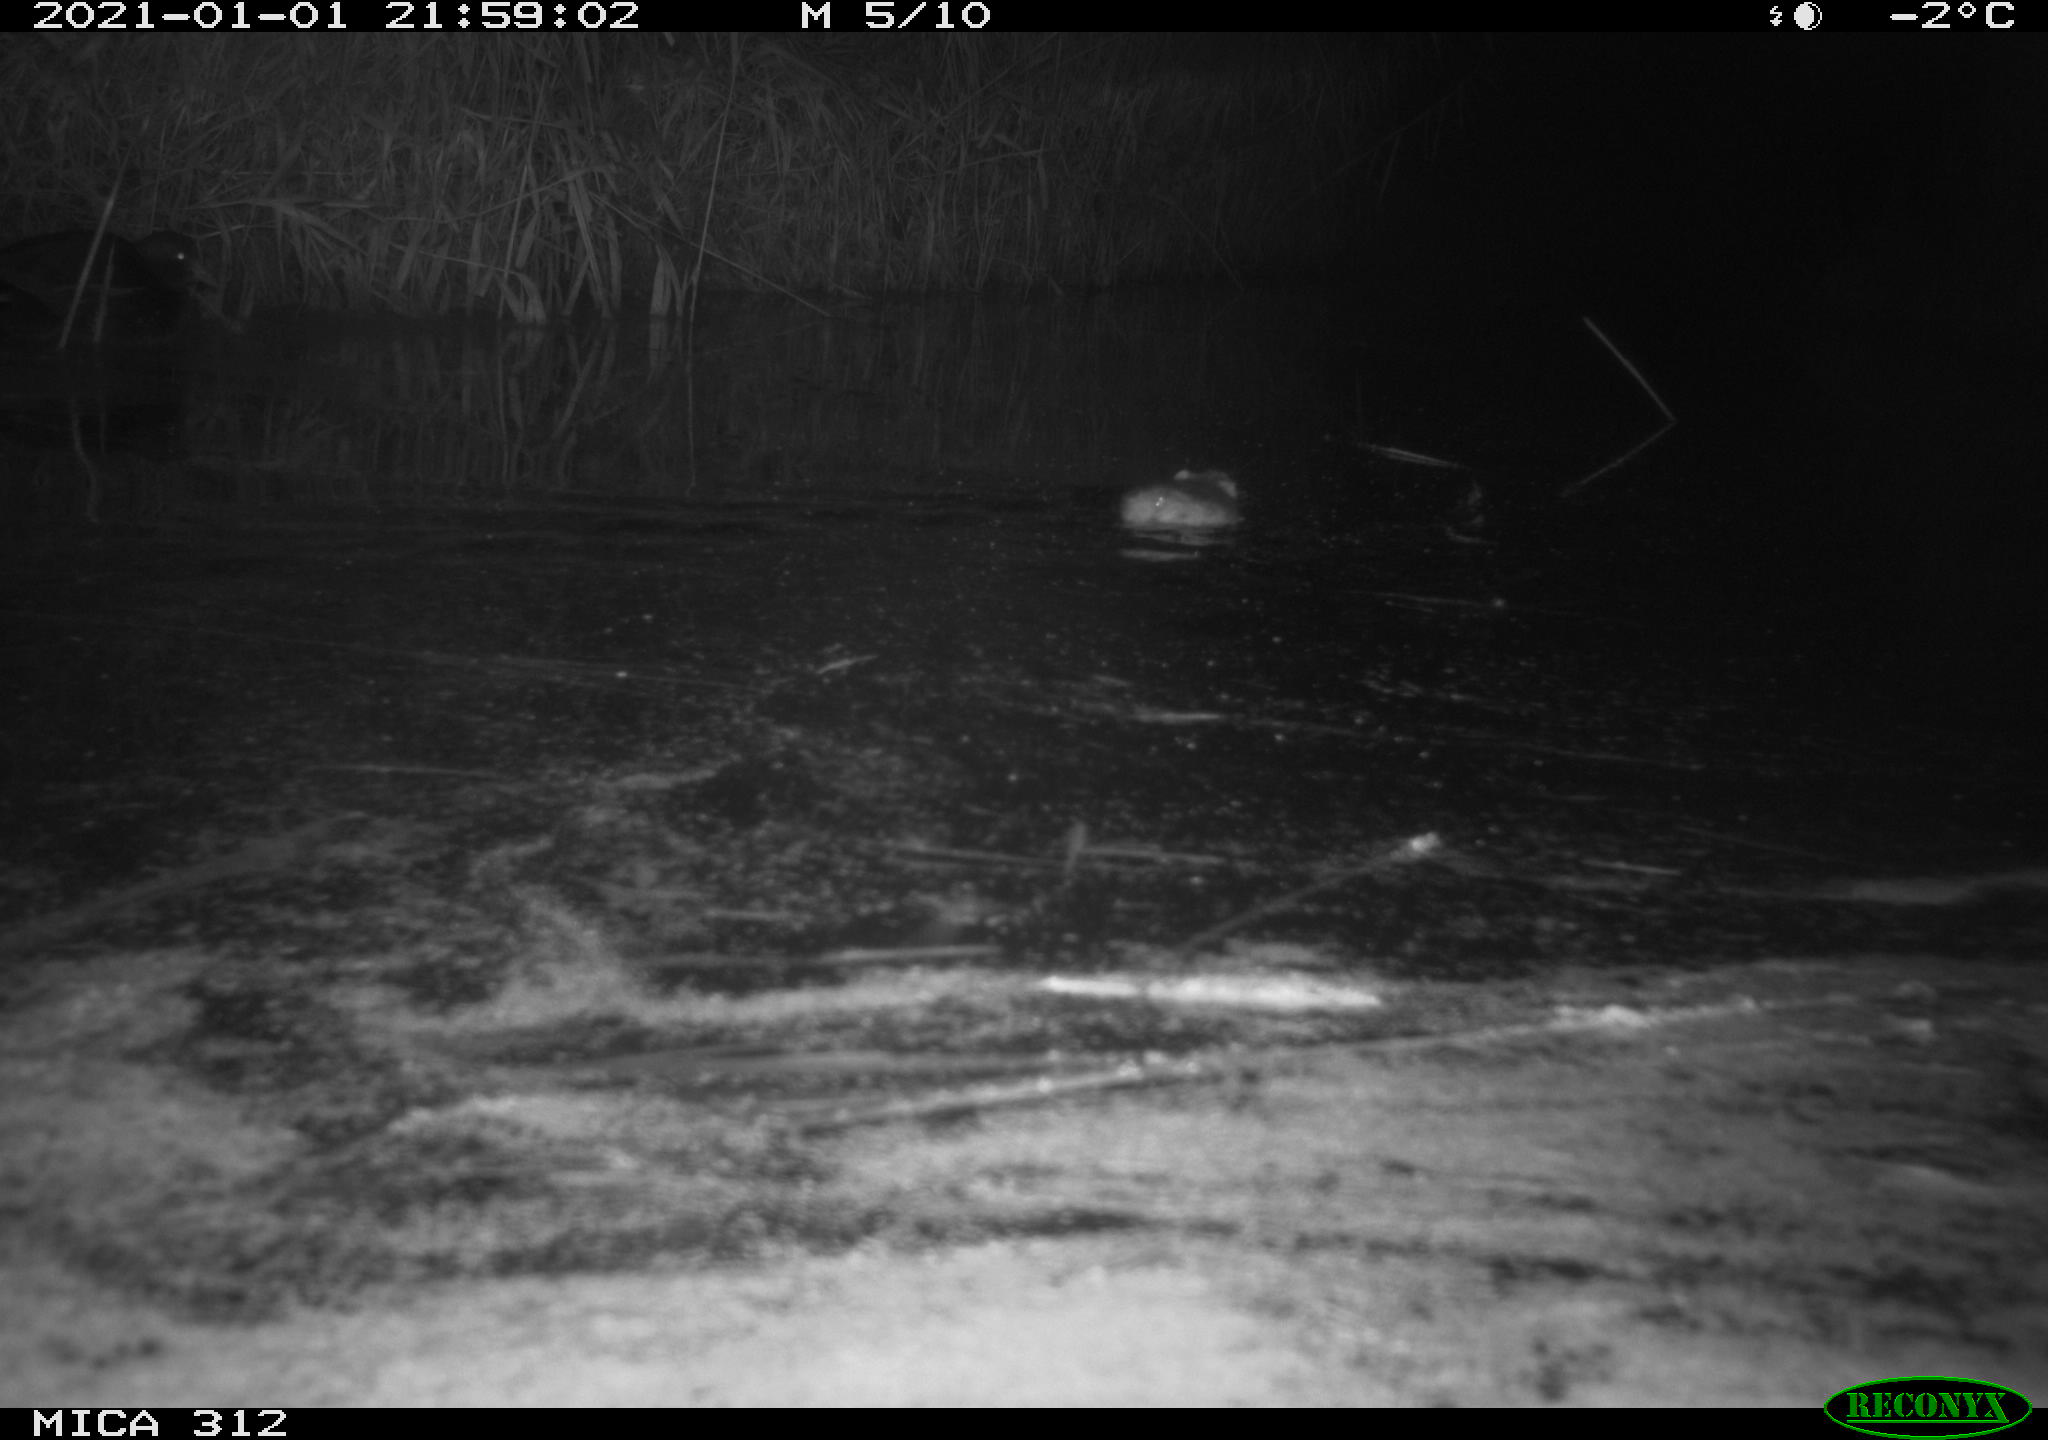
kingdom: Animalia
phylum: Chordata
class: Aves
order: Gruiformes
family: Rallidae
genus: Gallinula
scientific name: Gallinula chloropus
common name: Common moorhen
